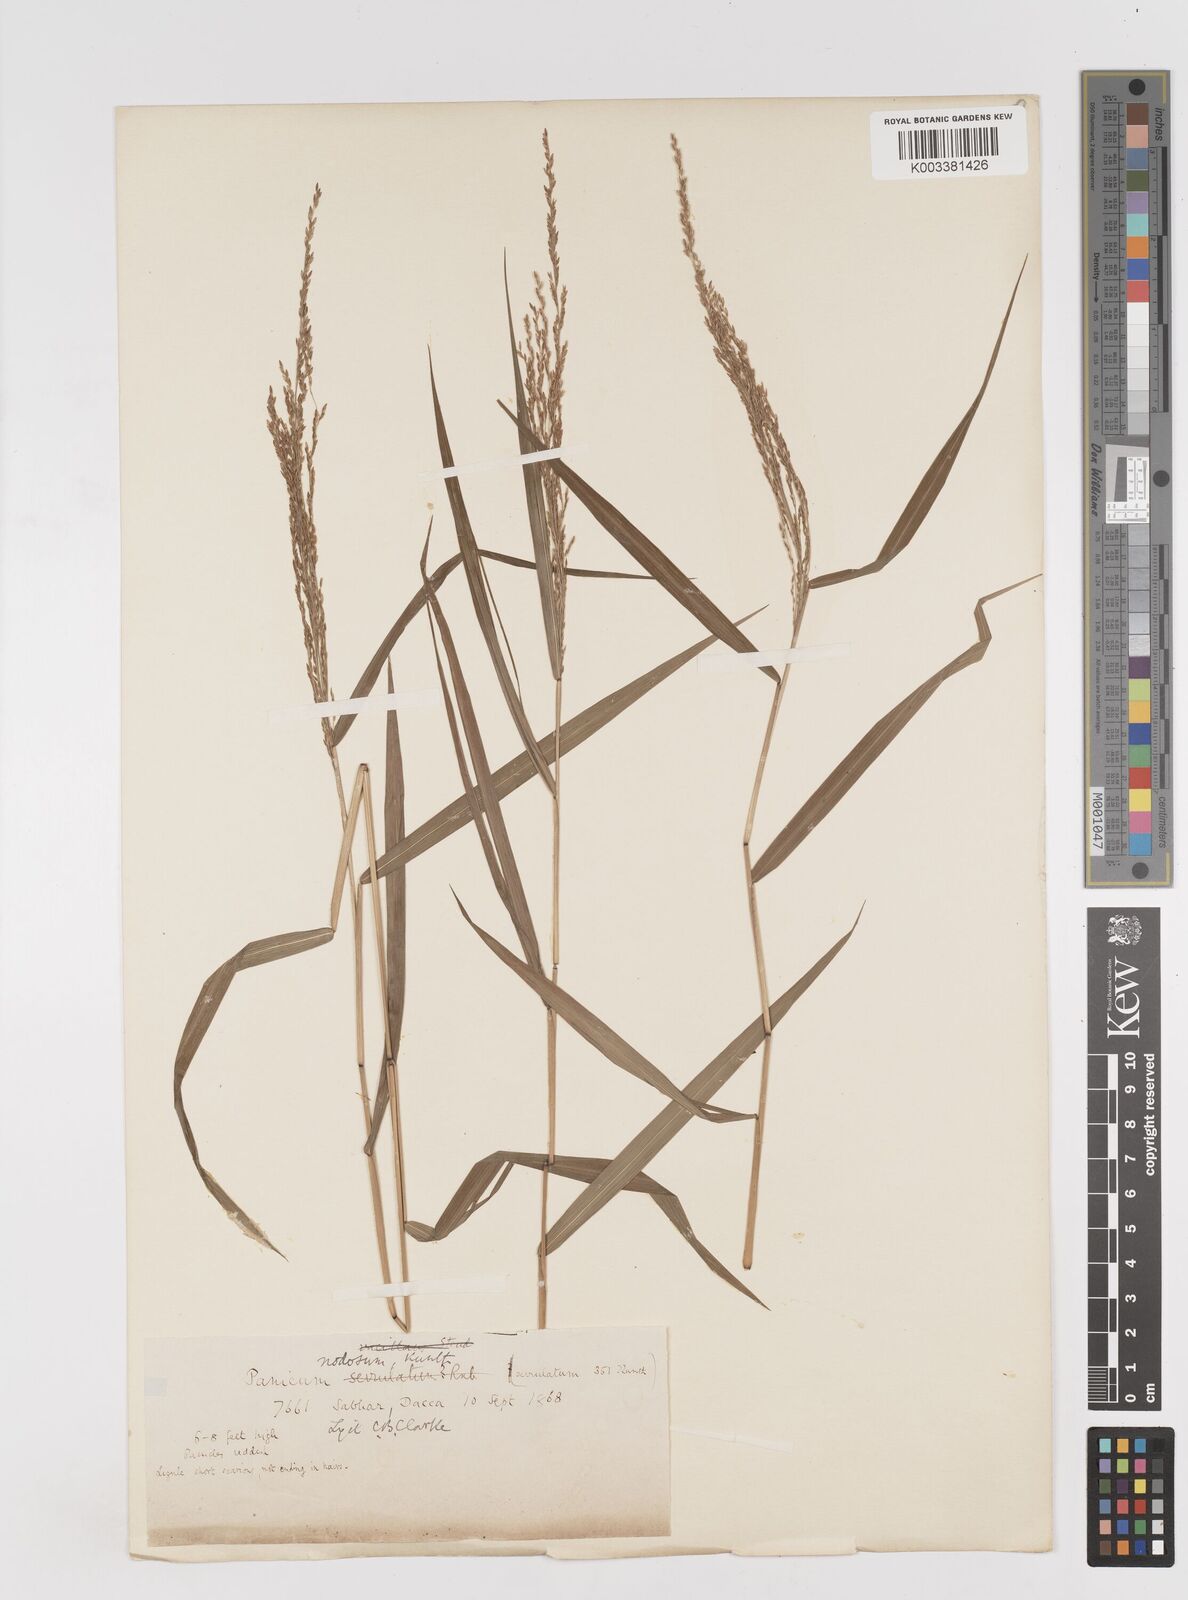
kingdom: Plantae
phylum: Tracheophyta
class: Liliopsida
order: Poales
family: Poaceae
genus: Ottochloa
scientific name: Ottochloa
